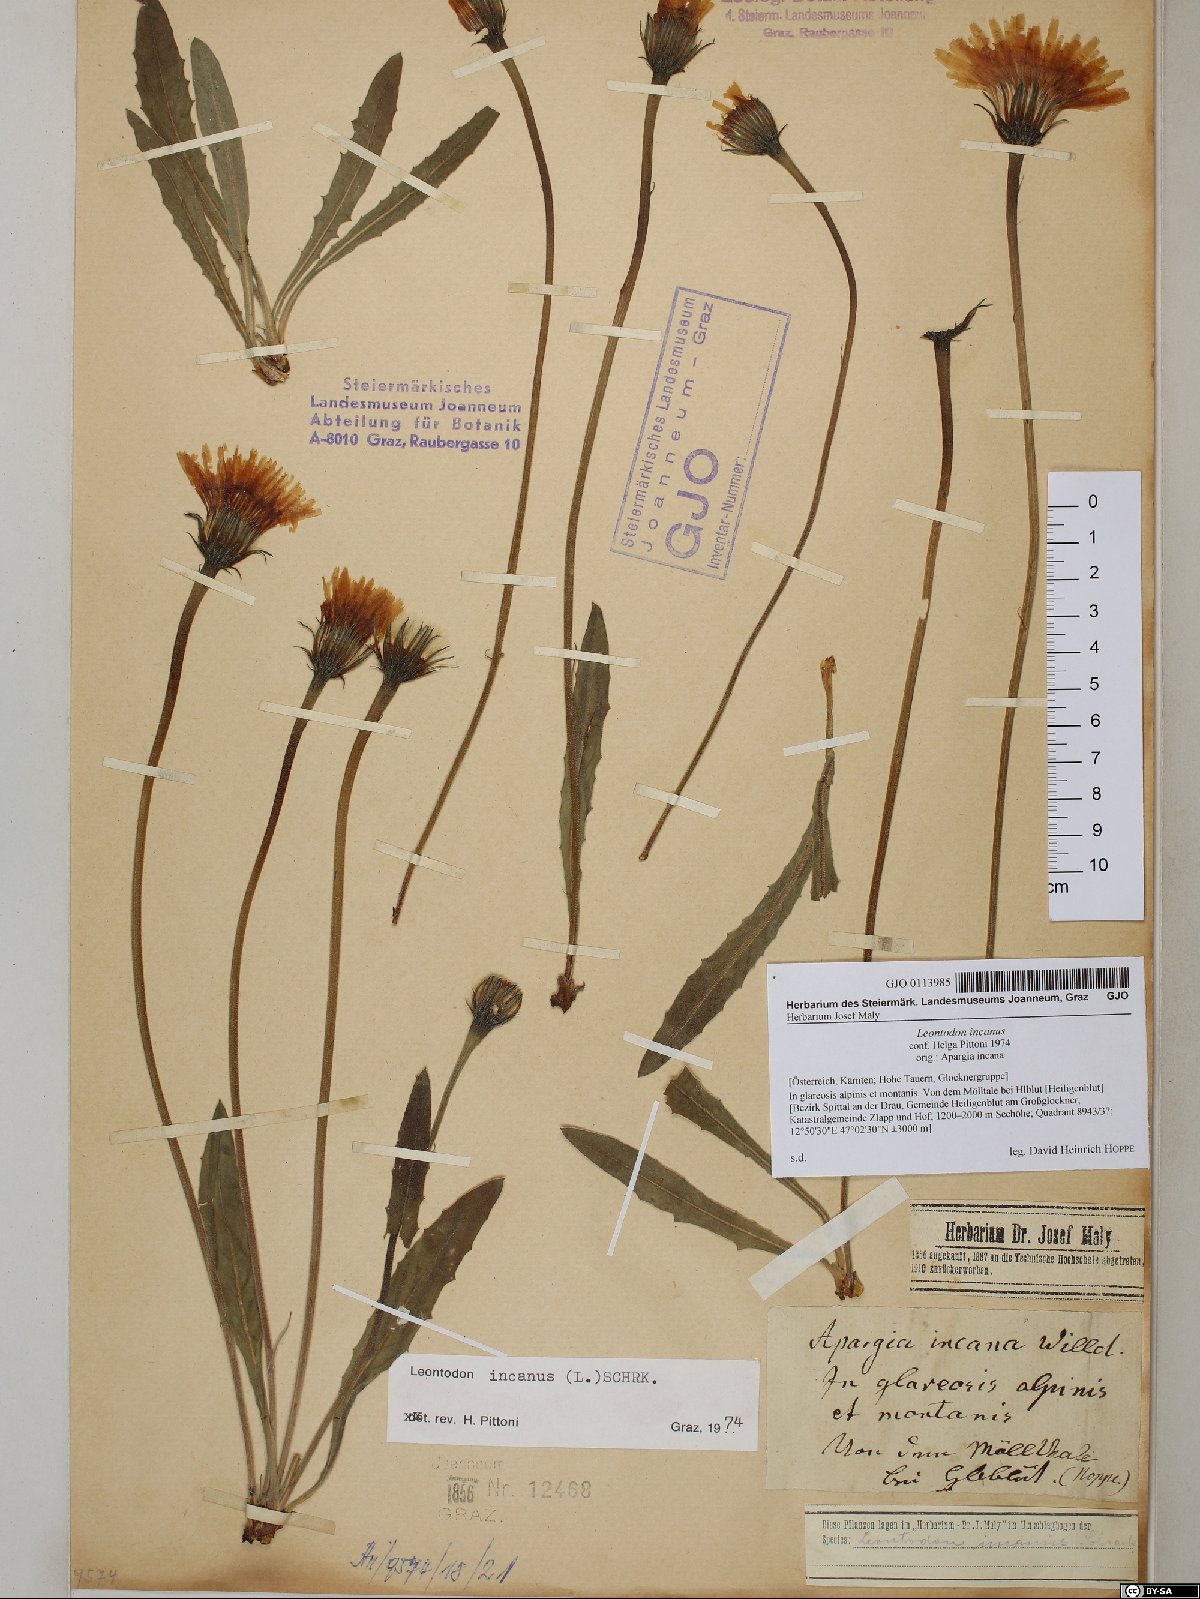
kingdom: Plantae
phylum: Tracheophyta
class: Magnoliopsida
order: Asterales
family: Asteraceae
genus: Leontodon
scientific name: Leontodon incanus
